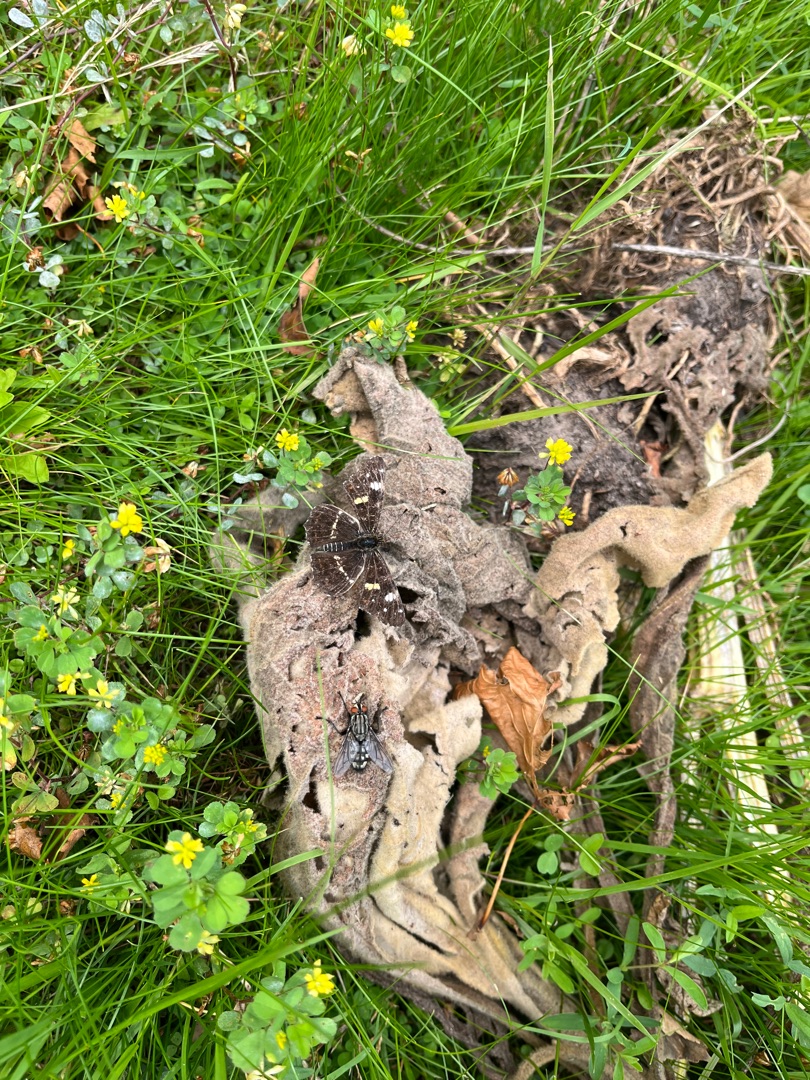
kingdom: Animalia
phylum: Arthropoda
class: Insecta
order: Lepidoptera
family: Nymphalidae
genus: Araschnia
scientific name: Araschnia levana
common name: Nældesommerfugl
